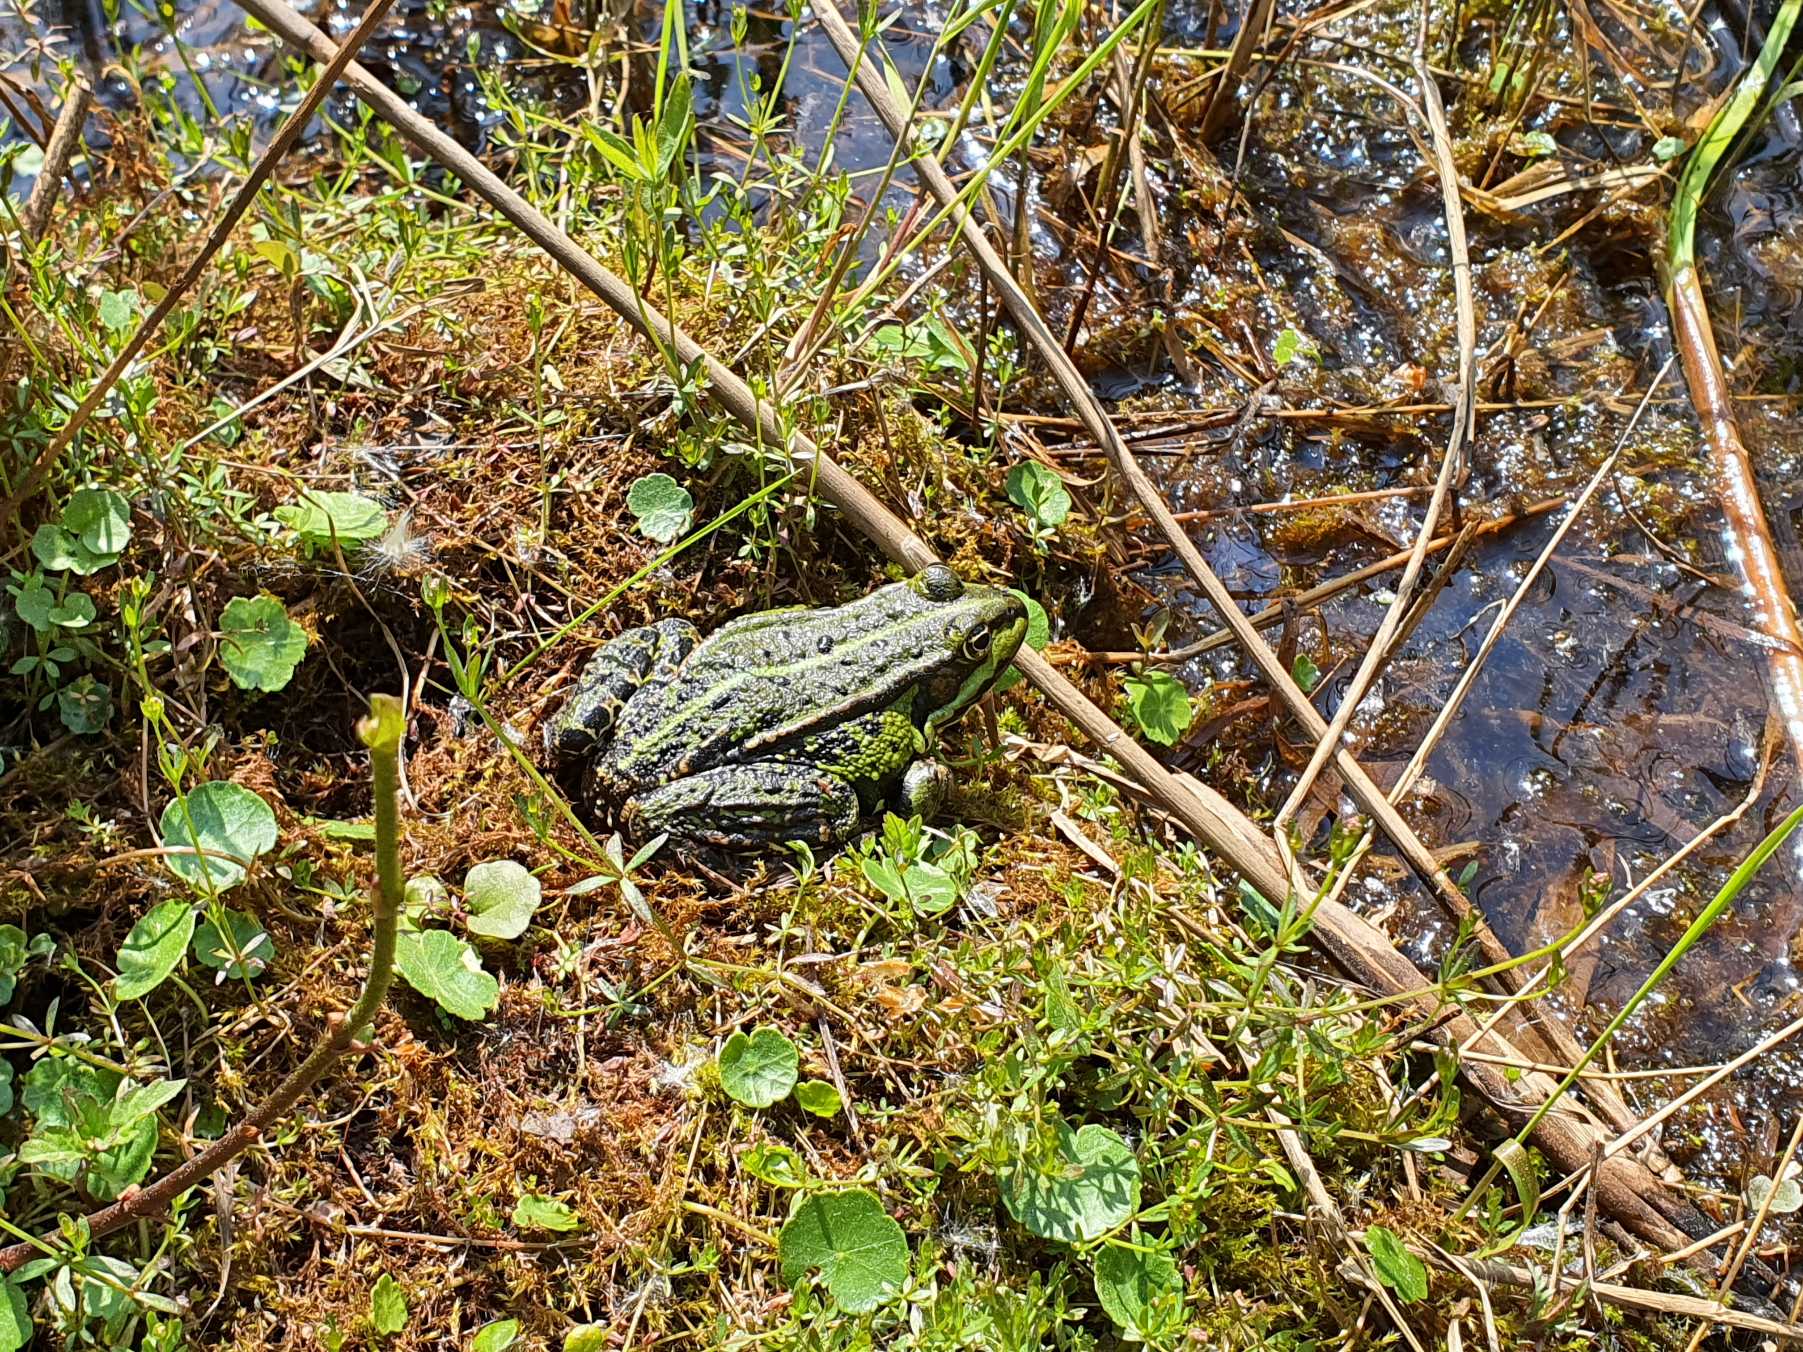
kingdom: Animalia
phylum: Chordata
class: Amphibia
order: Anura
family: Ranidae
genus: Pelophylax
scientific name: Pelophylax lessonae
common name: Grøn frø
